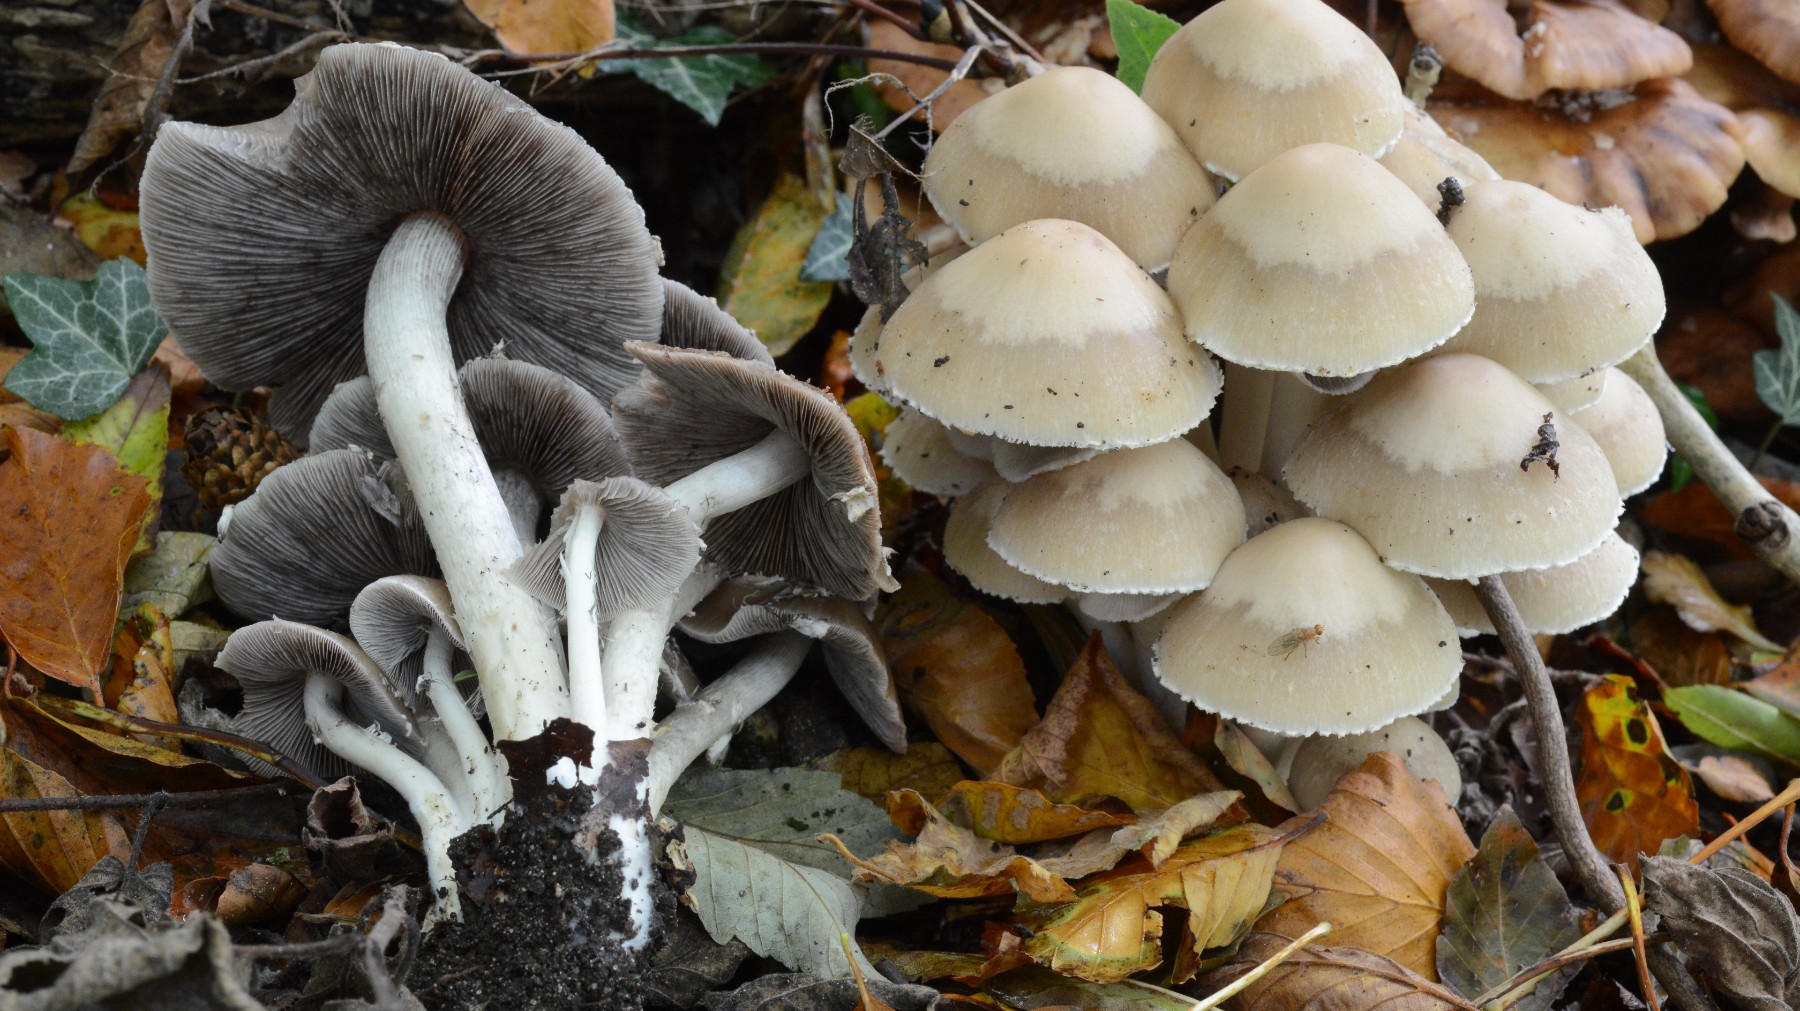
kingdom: Fungi
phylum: Basidiomycota
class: Agaricomycetes
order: Agaricales
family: Psathyrellaceae
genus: Candolleomyces
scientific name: Candolleomyces candolleanus
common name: Candolles mørkhat
